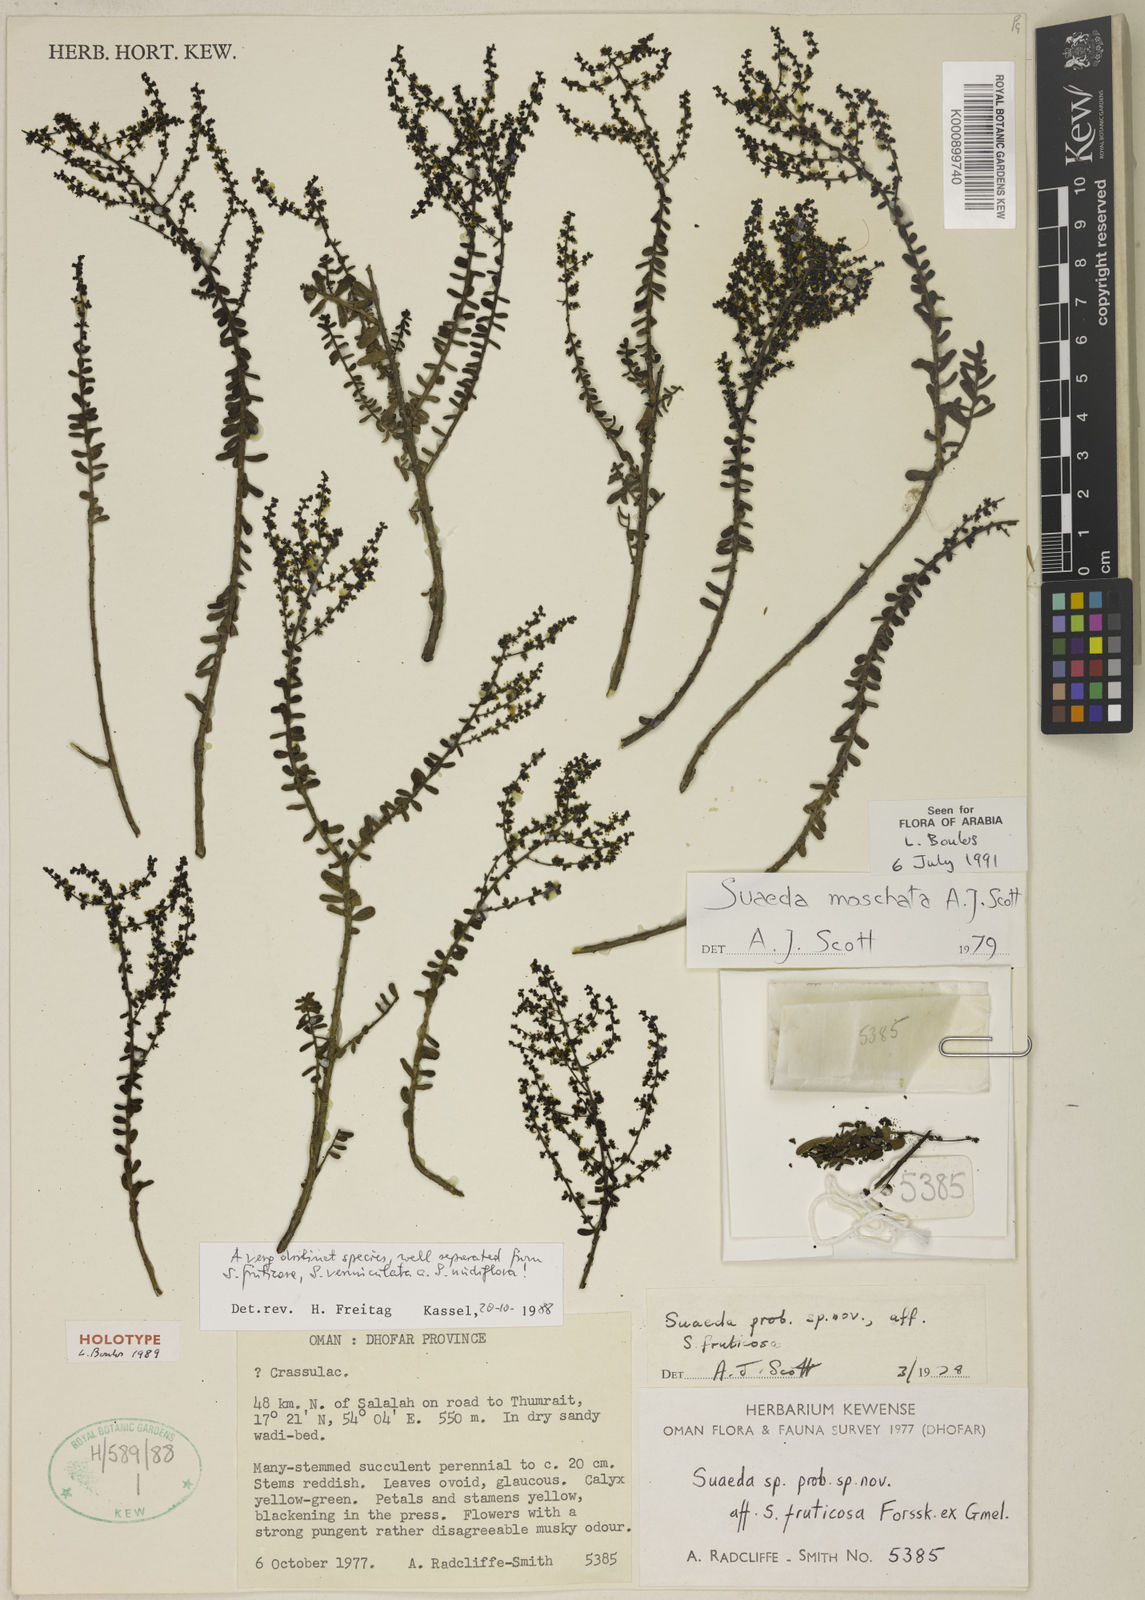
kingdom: Plantae
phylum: Tracheophyta
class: Magnoliopsida
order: Caryophyllales
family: Amaranthaceae
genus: Suaeda
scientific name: Suaeda moschata
